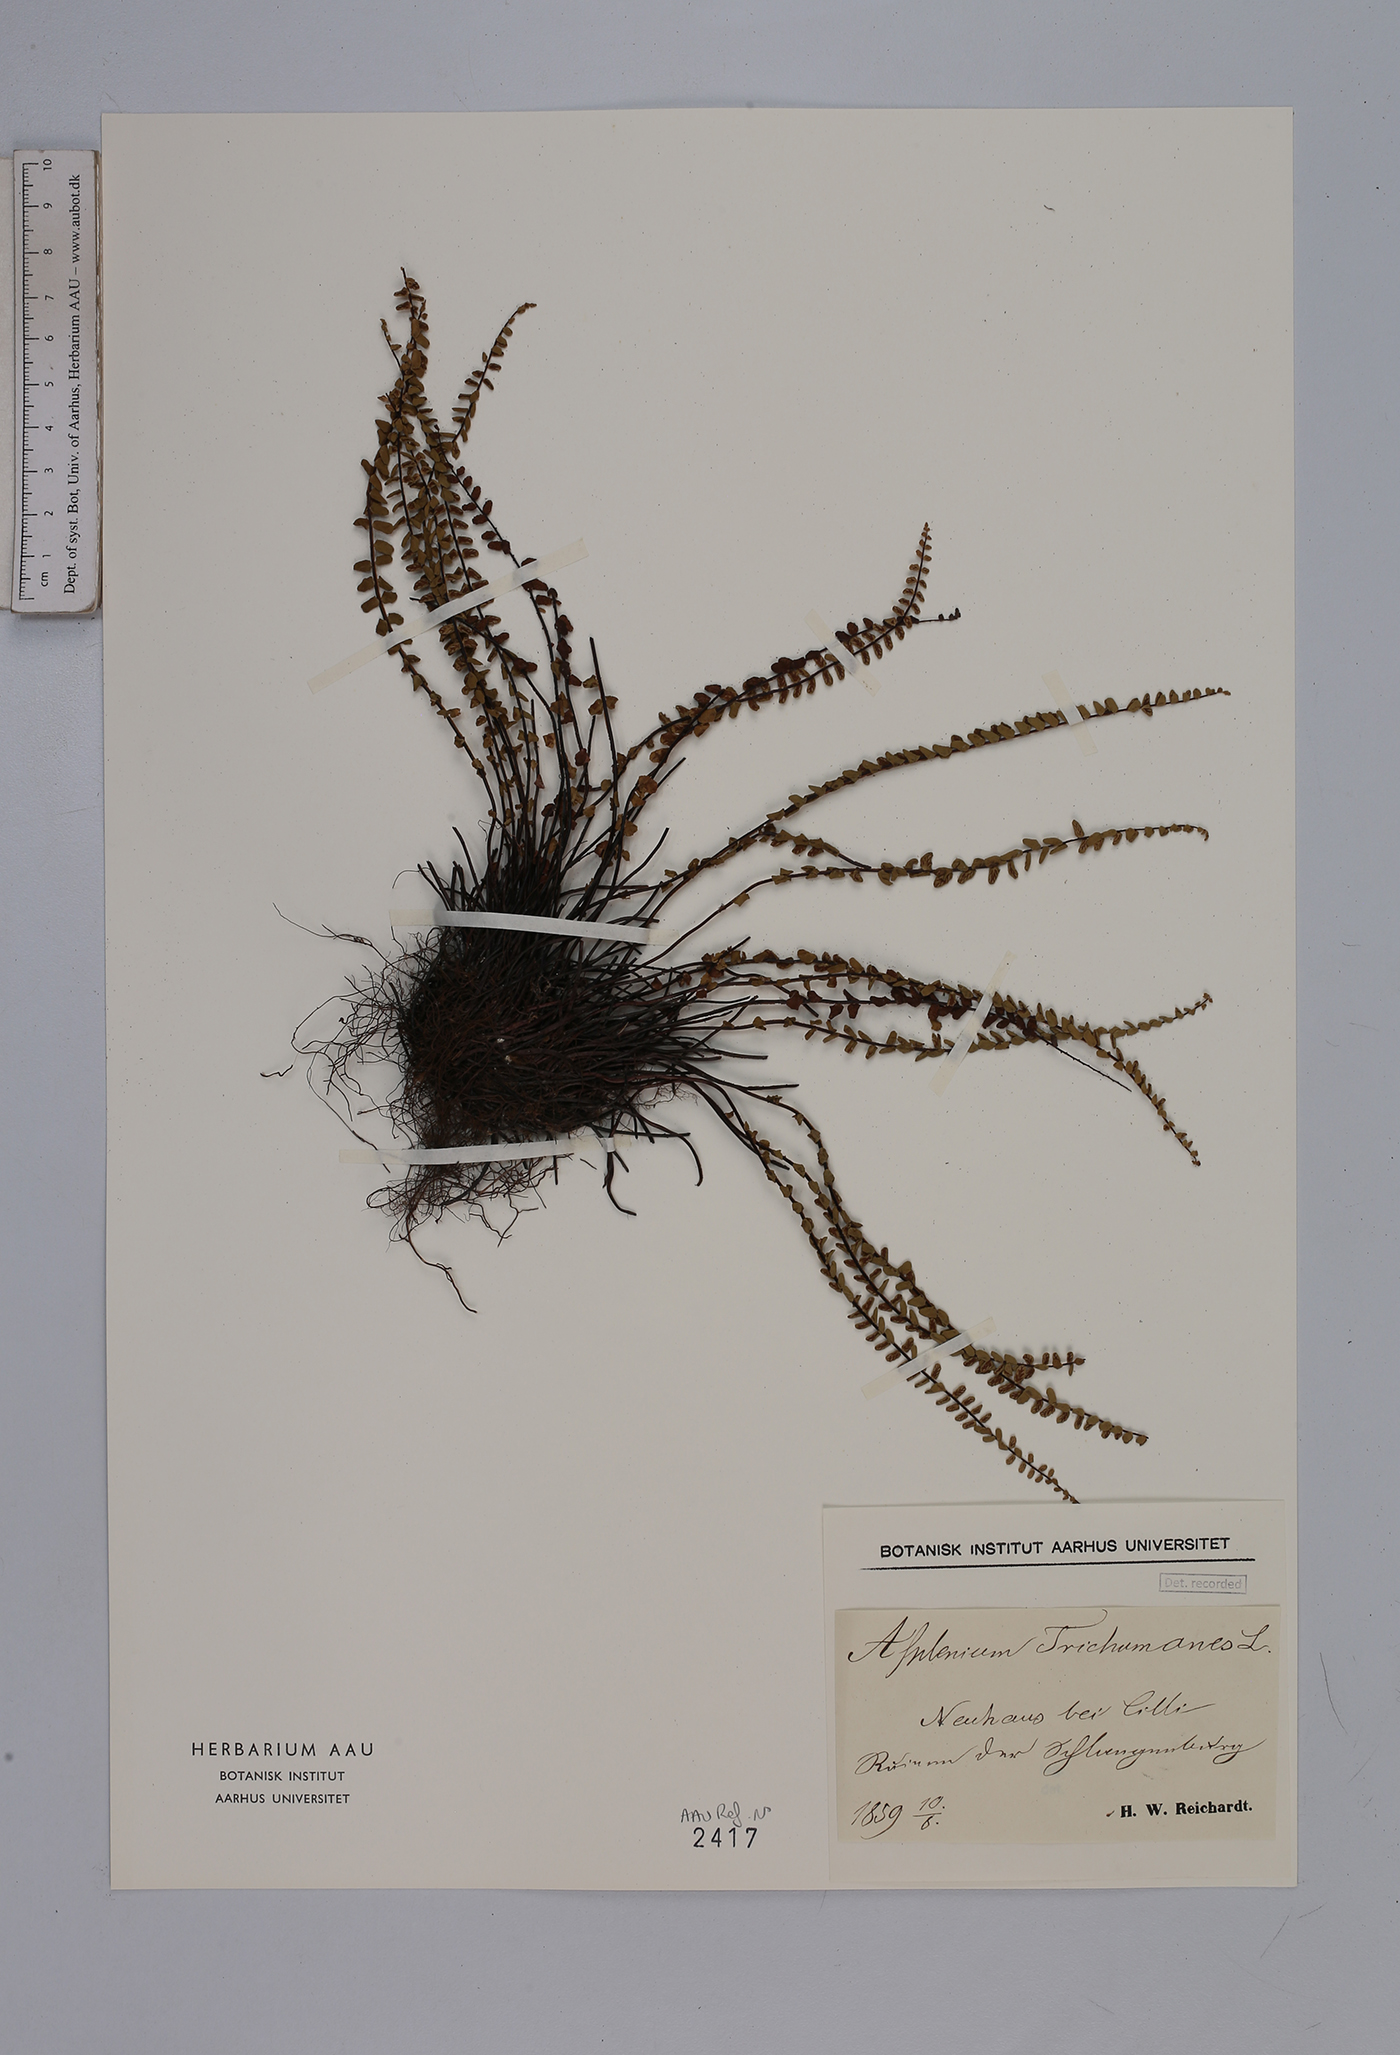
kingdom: Plantae
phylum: Tracheophyta
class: Polypodiopsida
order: Polypodiales
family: Aspleniaceae
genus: Asplenium
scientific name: Asplenium trichomanes
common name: Maidenhair spleenwort
